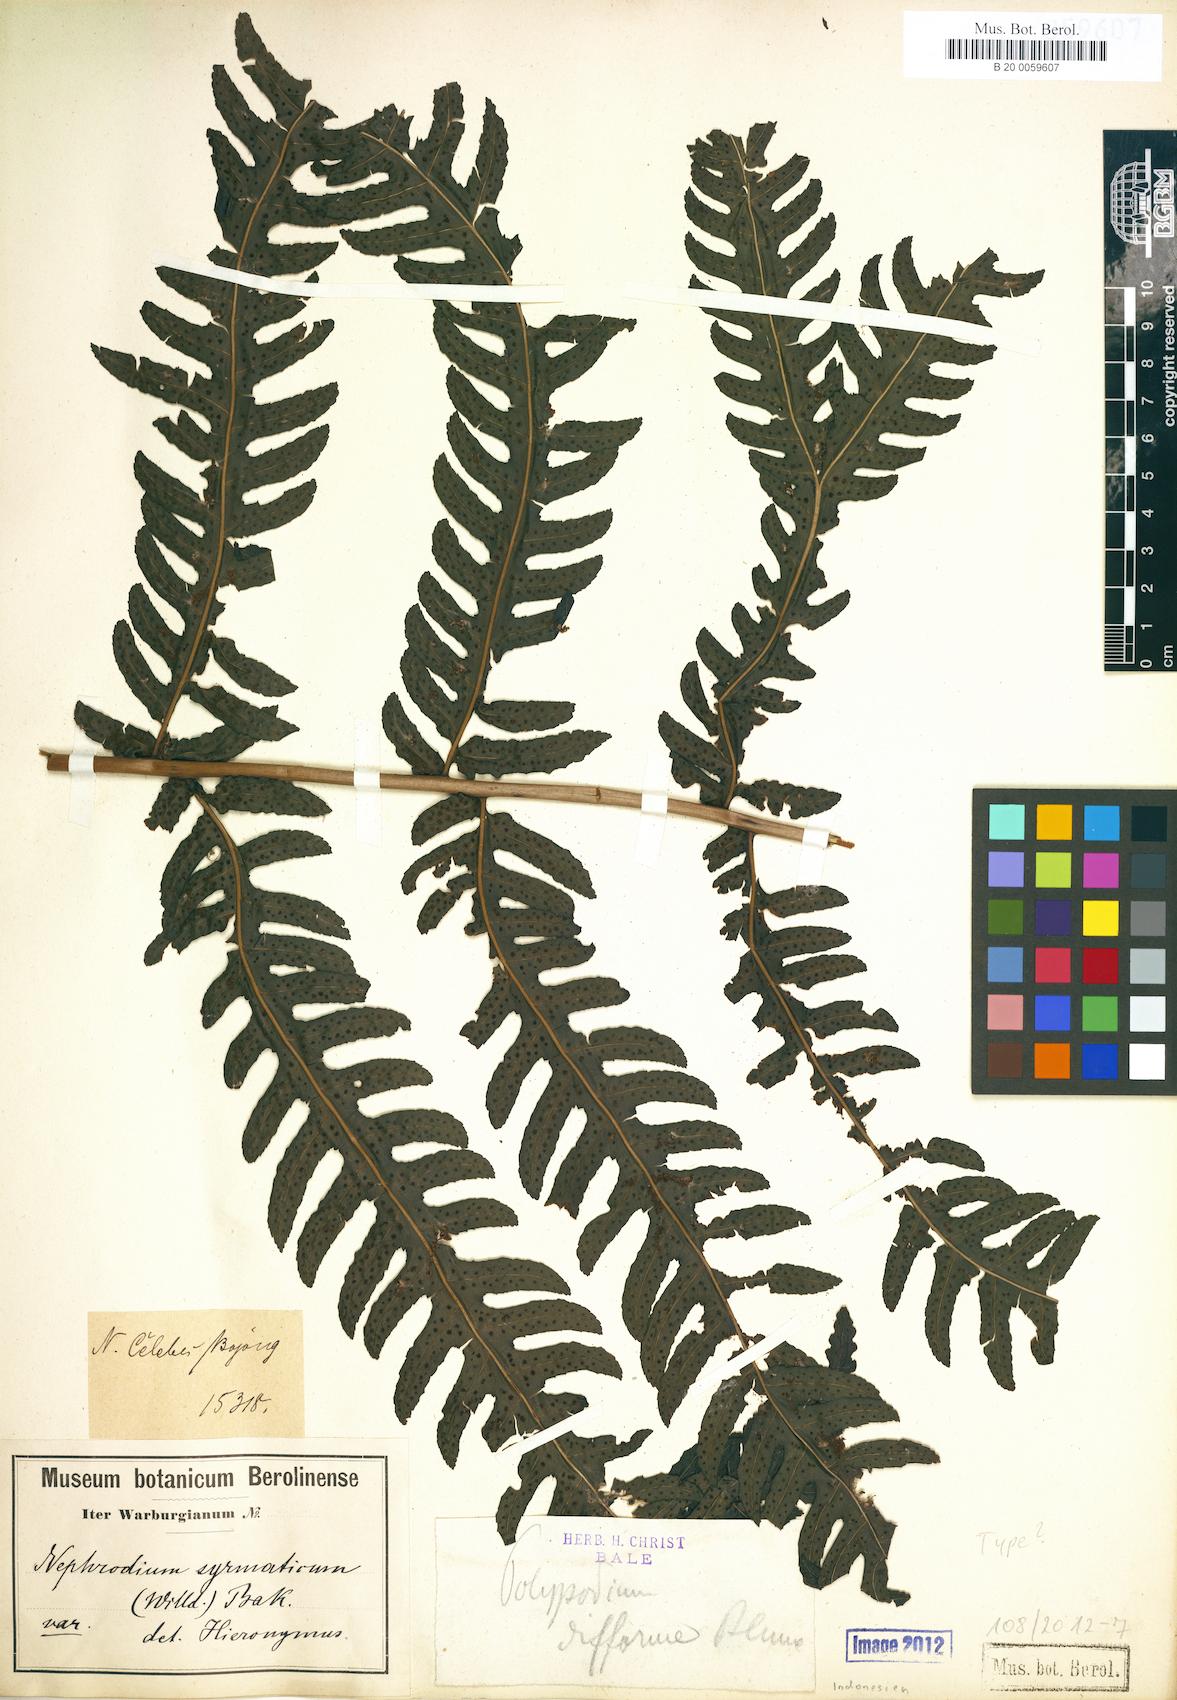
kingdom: Plantae
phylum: Tracheophyta
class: Polypodiopsida
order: Polypodiales
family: Dryopteridaceae
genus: Polystichum
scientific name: Polystichum multifidum
